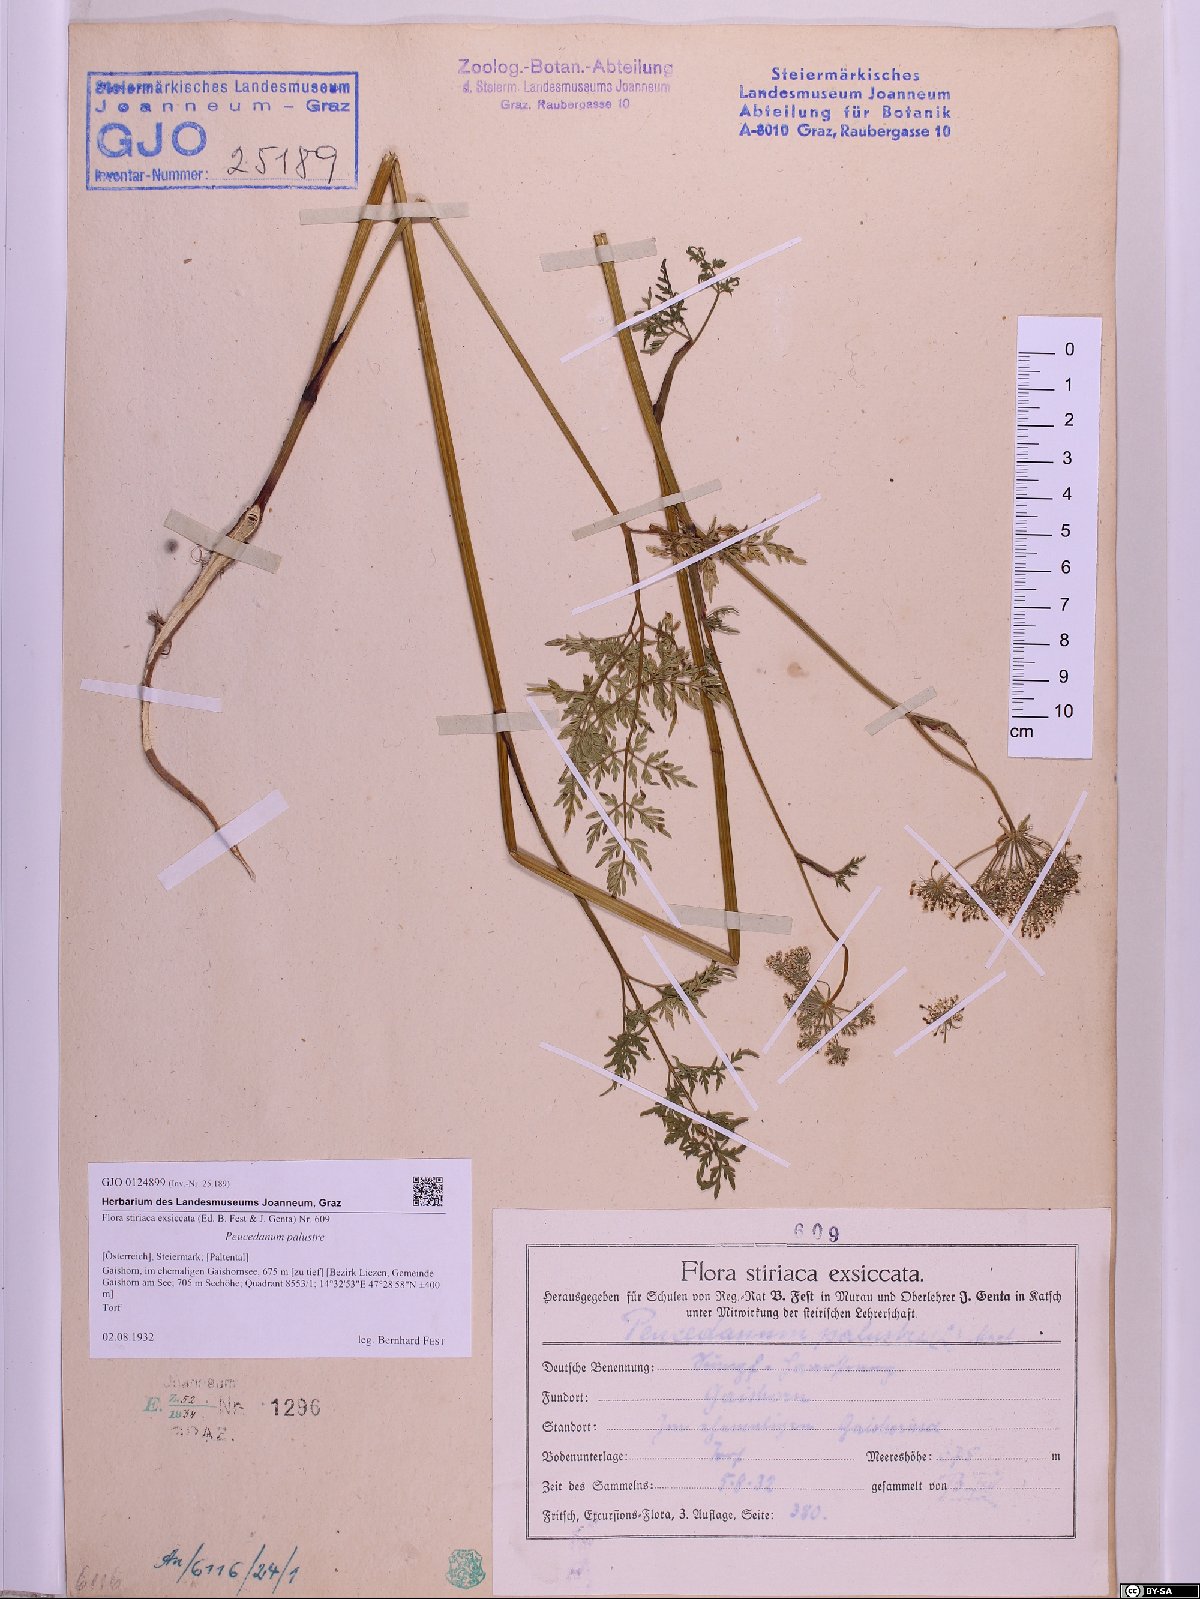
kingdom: Plantae
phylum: Tracheophyta
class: Magnoliopsida
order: Apiales
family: Apiaceae
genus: Thysselinum
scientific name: Thysselinum palustre
